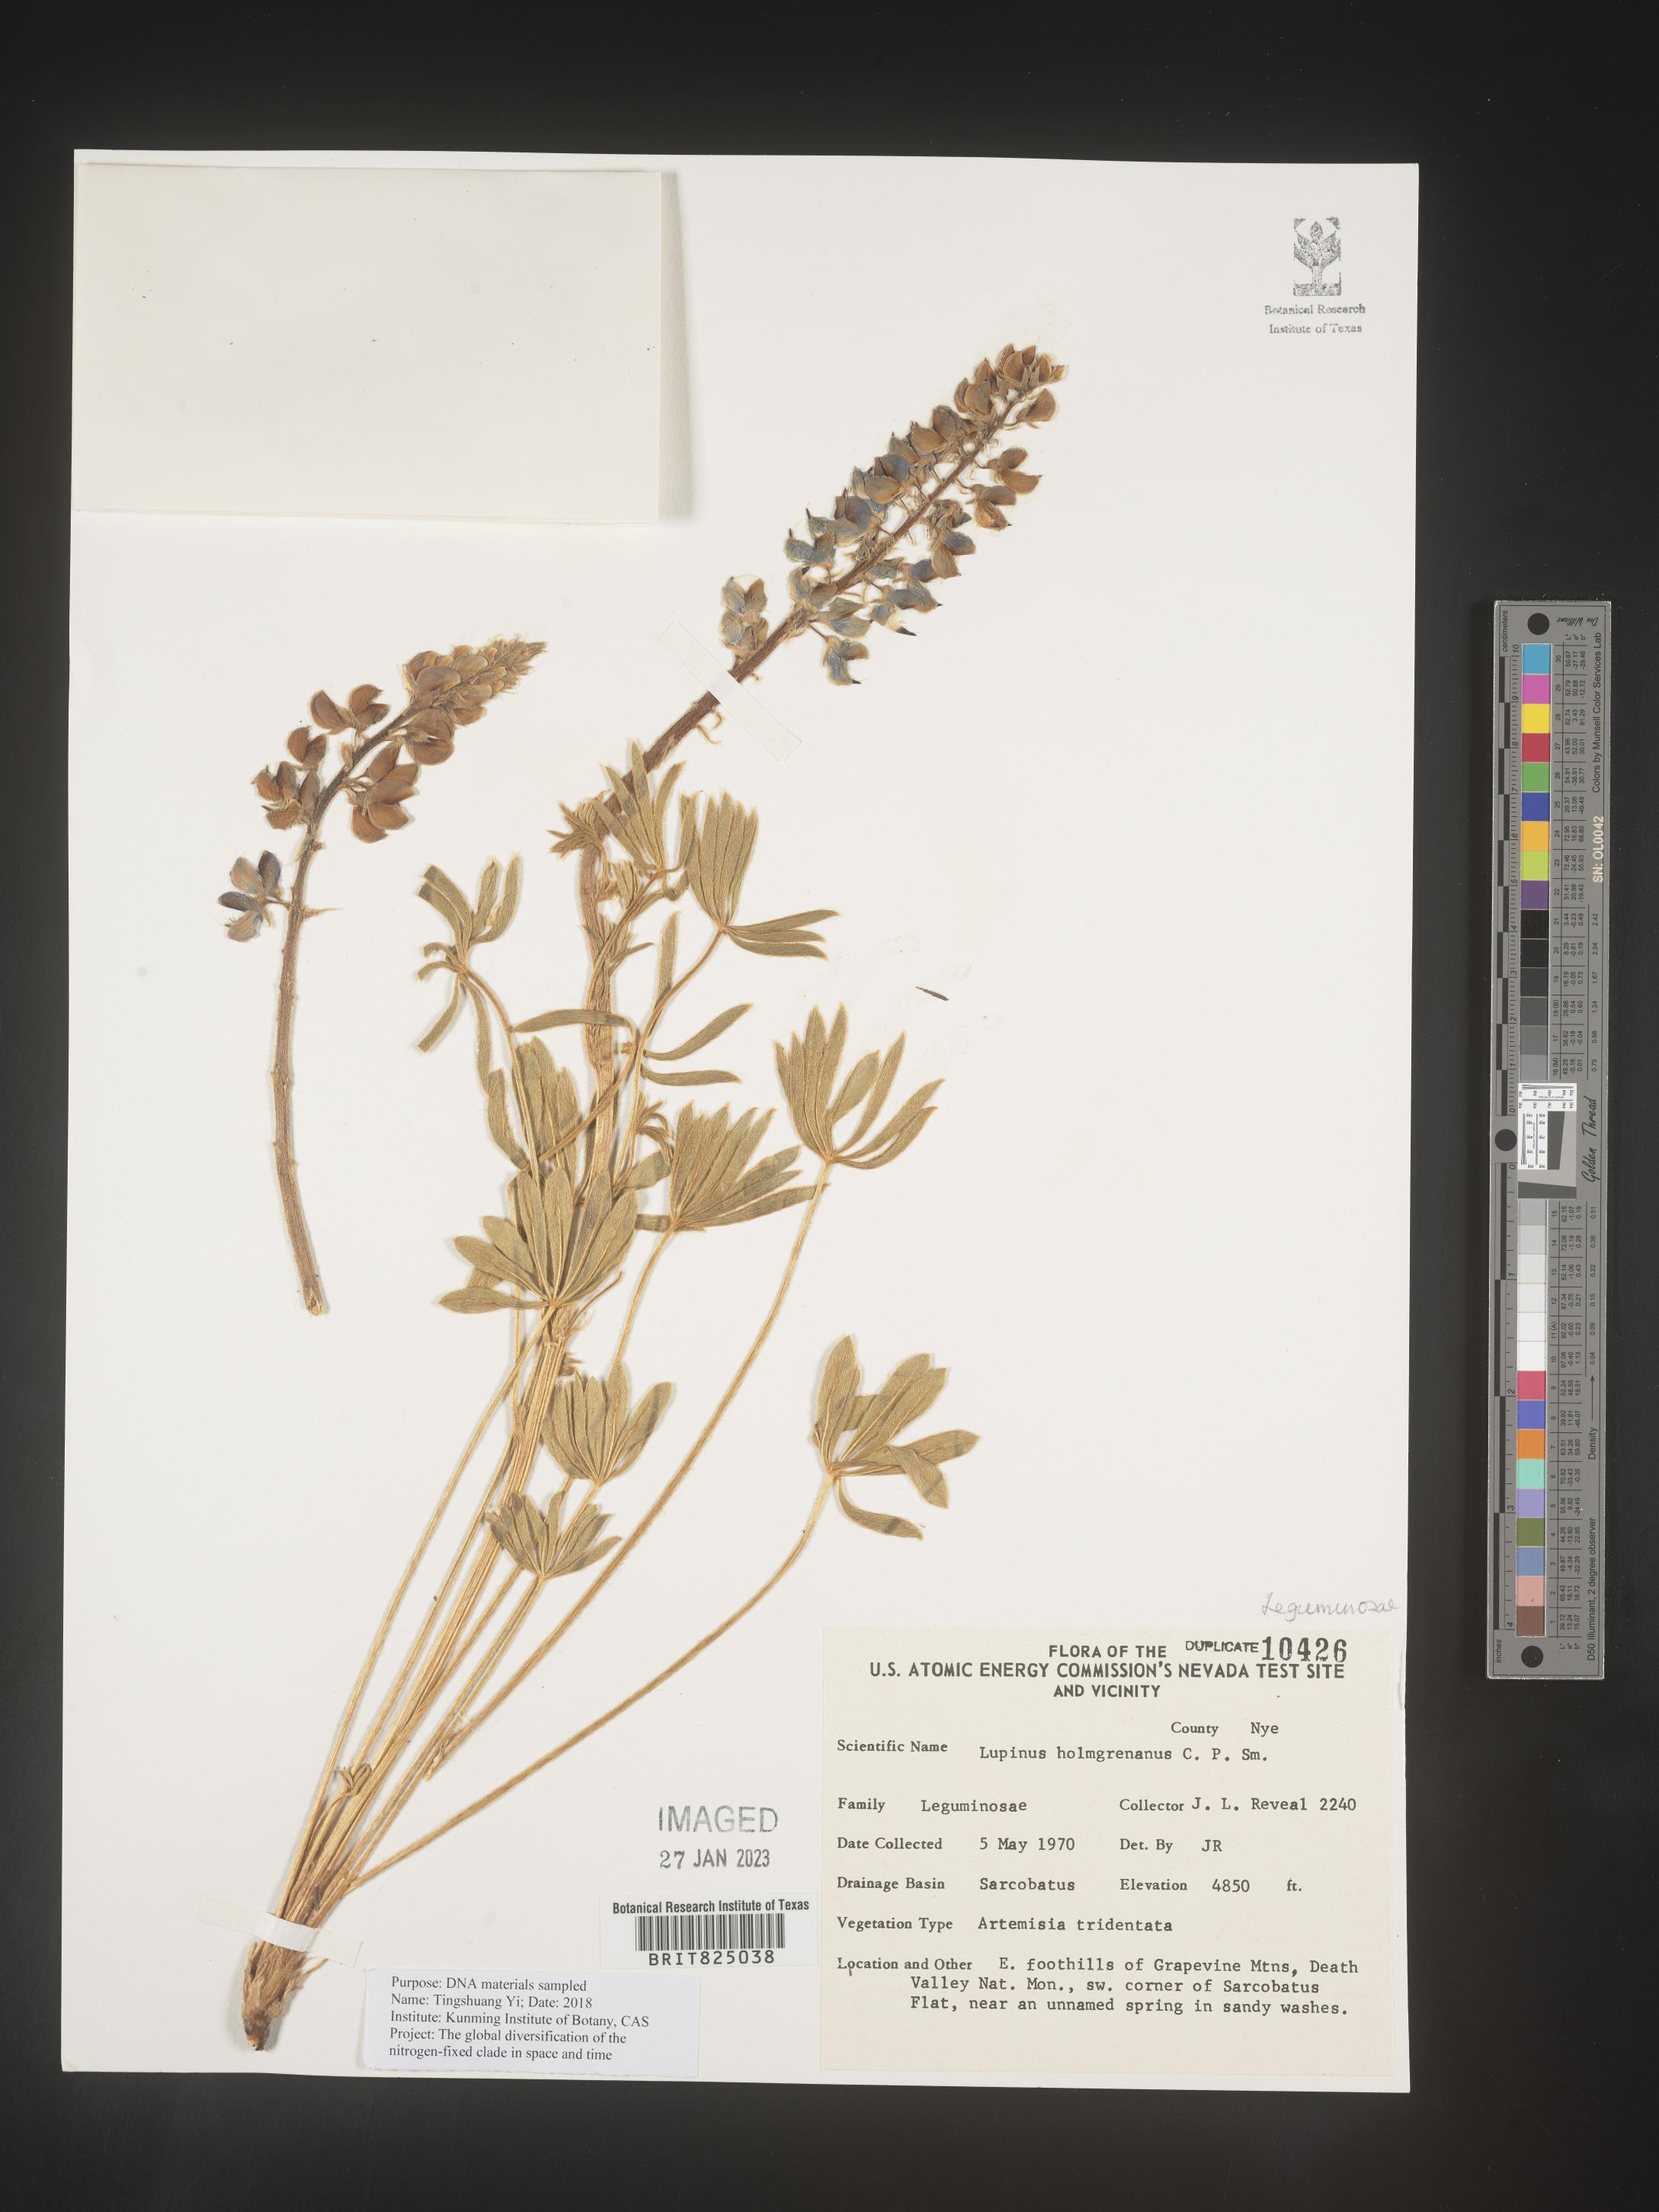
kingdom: Plantae
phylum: Tracheophyta
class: Magnoliopsida
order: Fabales
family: Fabaceae
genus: Lupinus
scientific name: Lupinus
